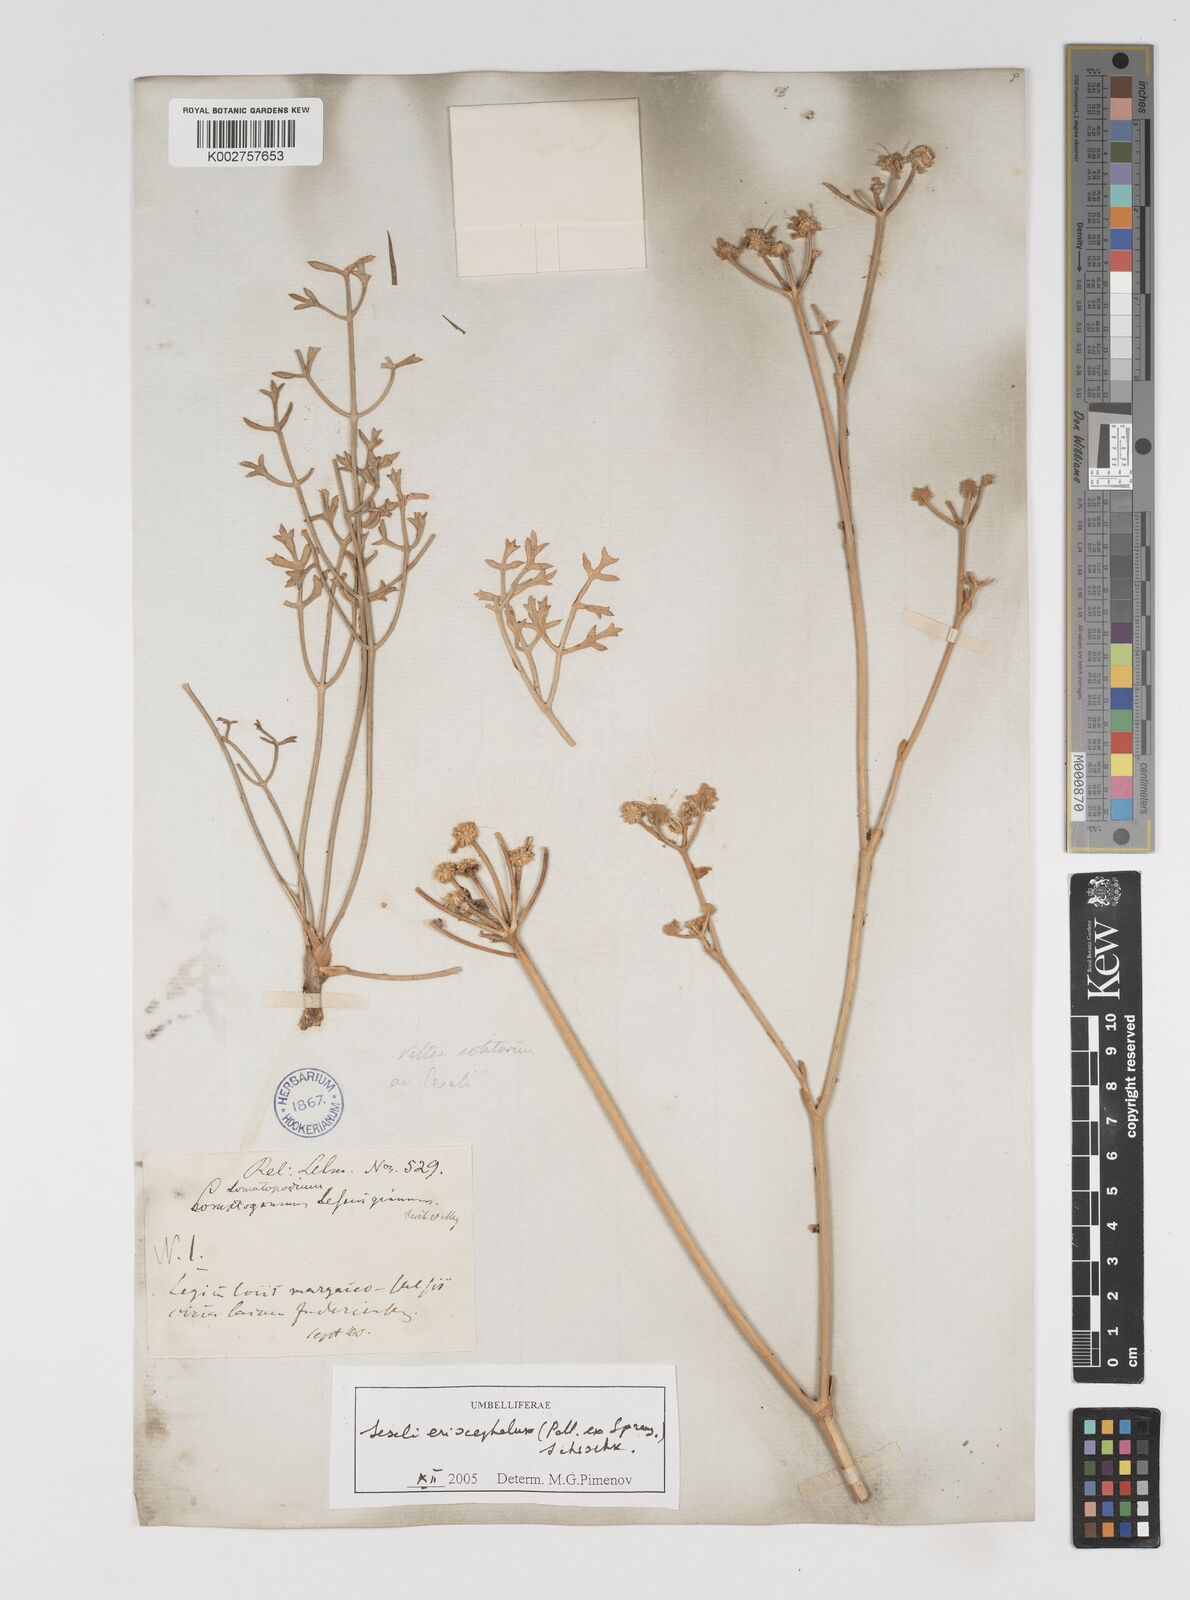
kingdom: Plantae
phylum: Tracheophyta
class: Magnoliopsida
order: Apiales
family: Apiaceae
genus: Seseli
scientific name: Seseli eriocephalum
